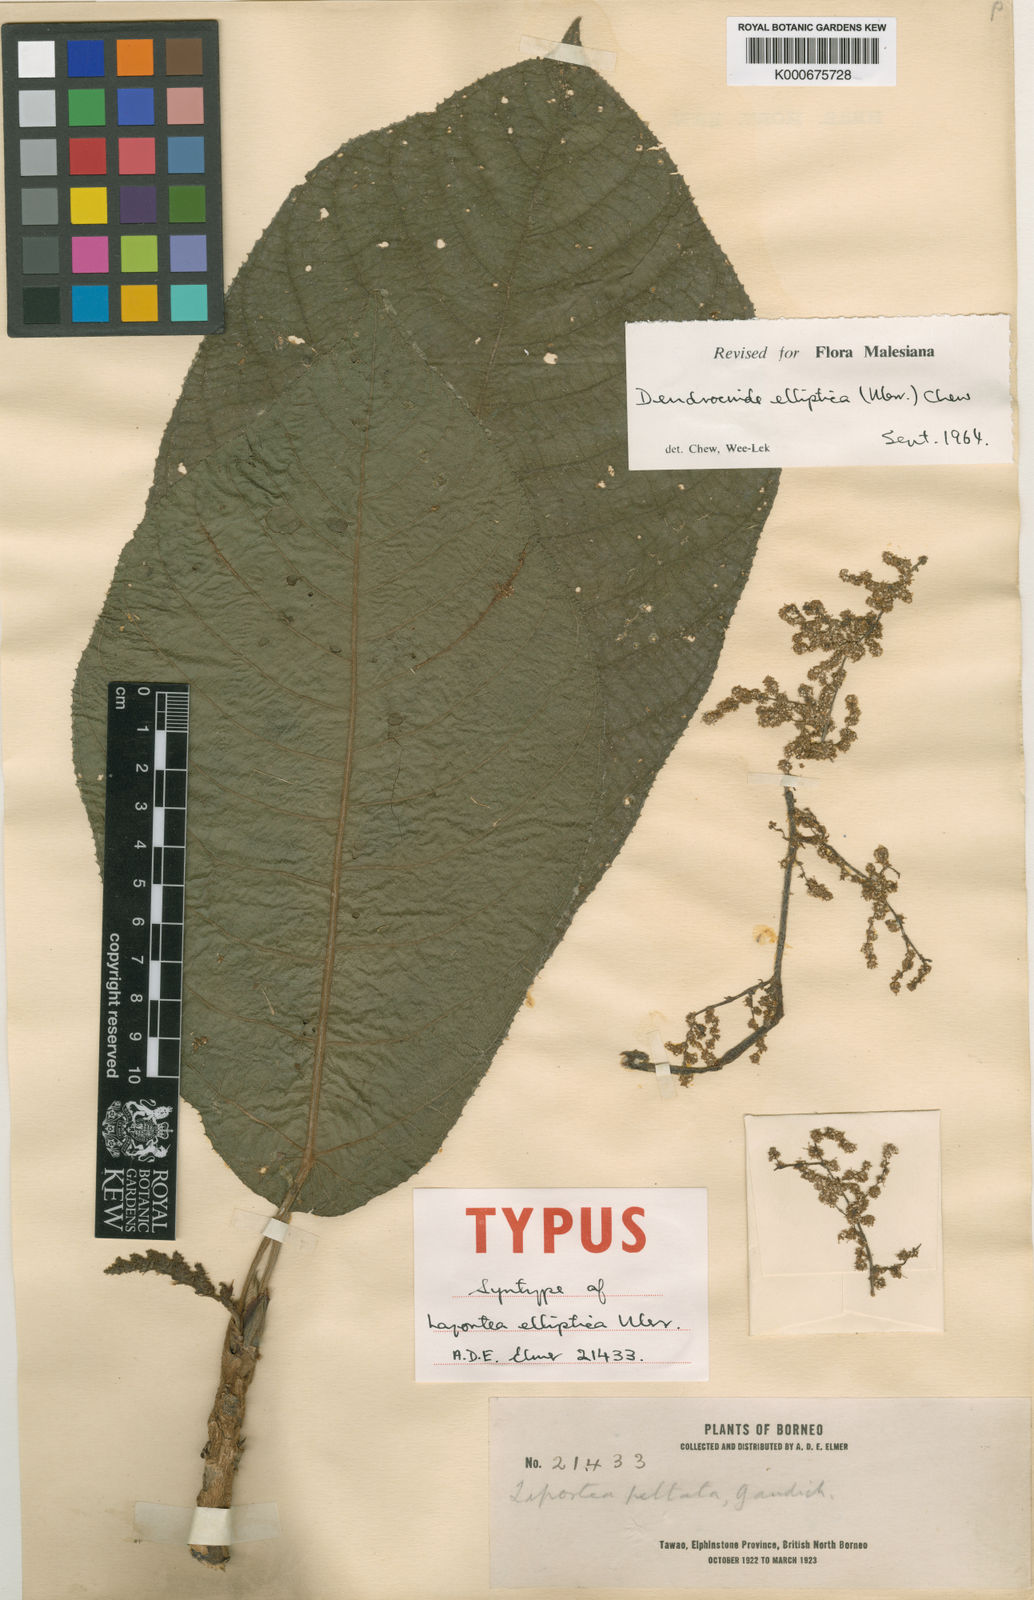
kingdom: Plantae
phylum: Tracheophyta
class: Magnoliopsida
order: Rosales
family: Urticaceae
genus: Dendrocnide
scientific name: Dendrocnide elliptica
